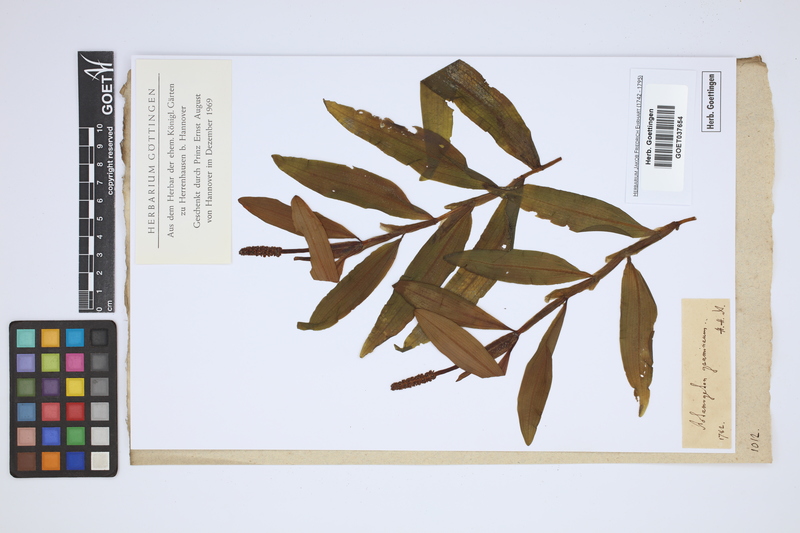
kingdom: Plantae
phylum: Tracheophyta
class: Liliopsida
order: Alismatales
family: Potamogetonaceae
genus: Potamogeton
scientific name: Potamogeton gramineus
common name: Various-leaved pondweed
